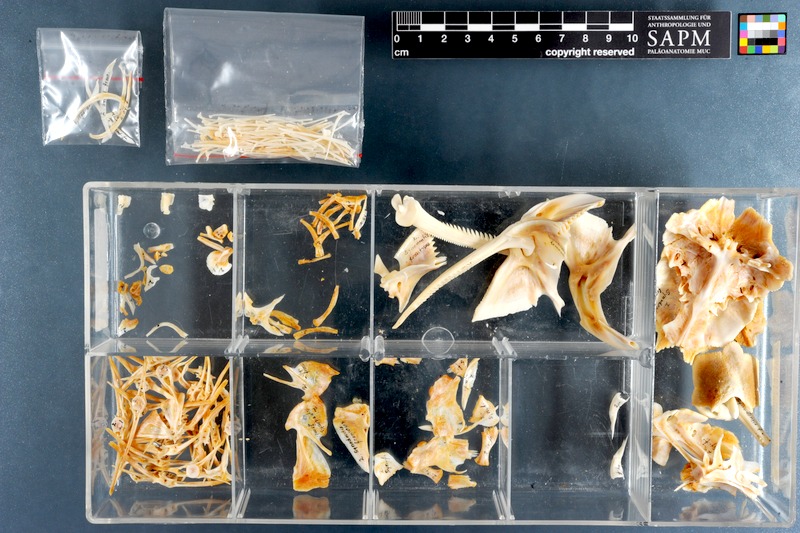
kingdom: Animalia
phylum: Chordata
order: Siluriformes
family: Mochokidae
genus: Synodontis
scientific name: Synodontis frontosus
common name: Sudan squeaker
